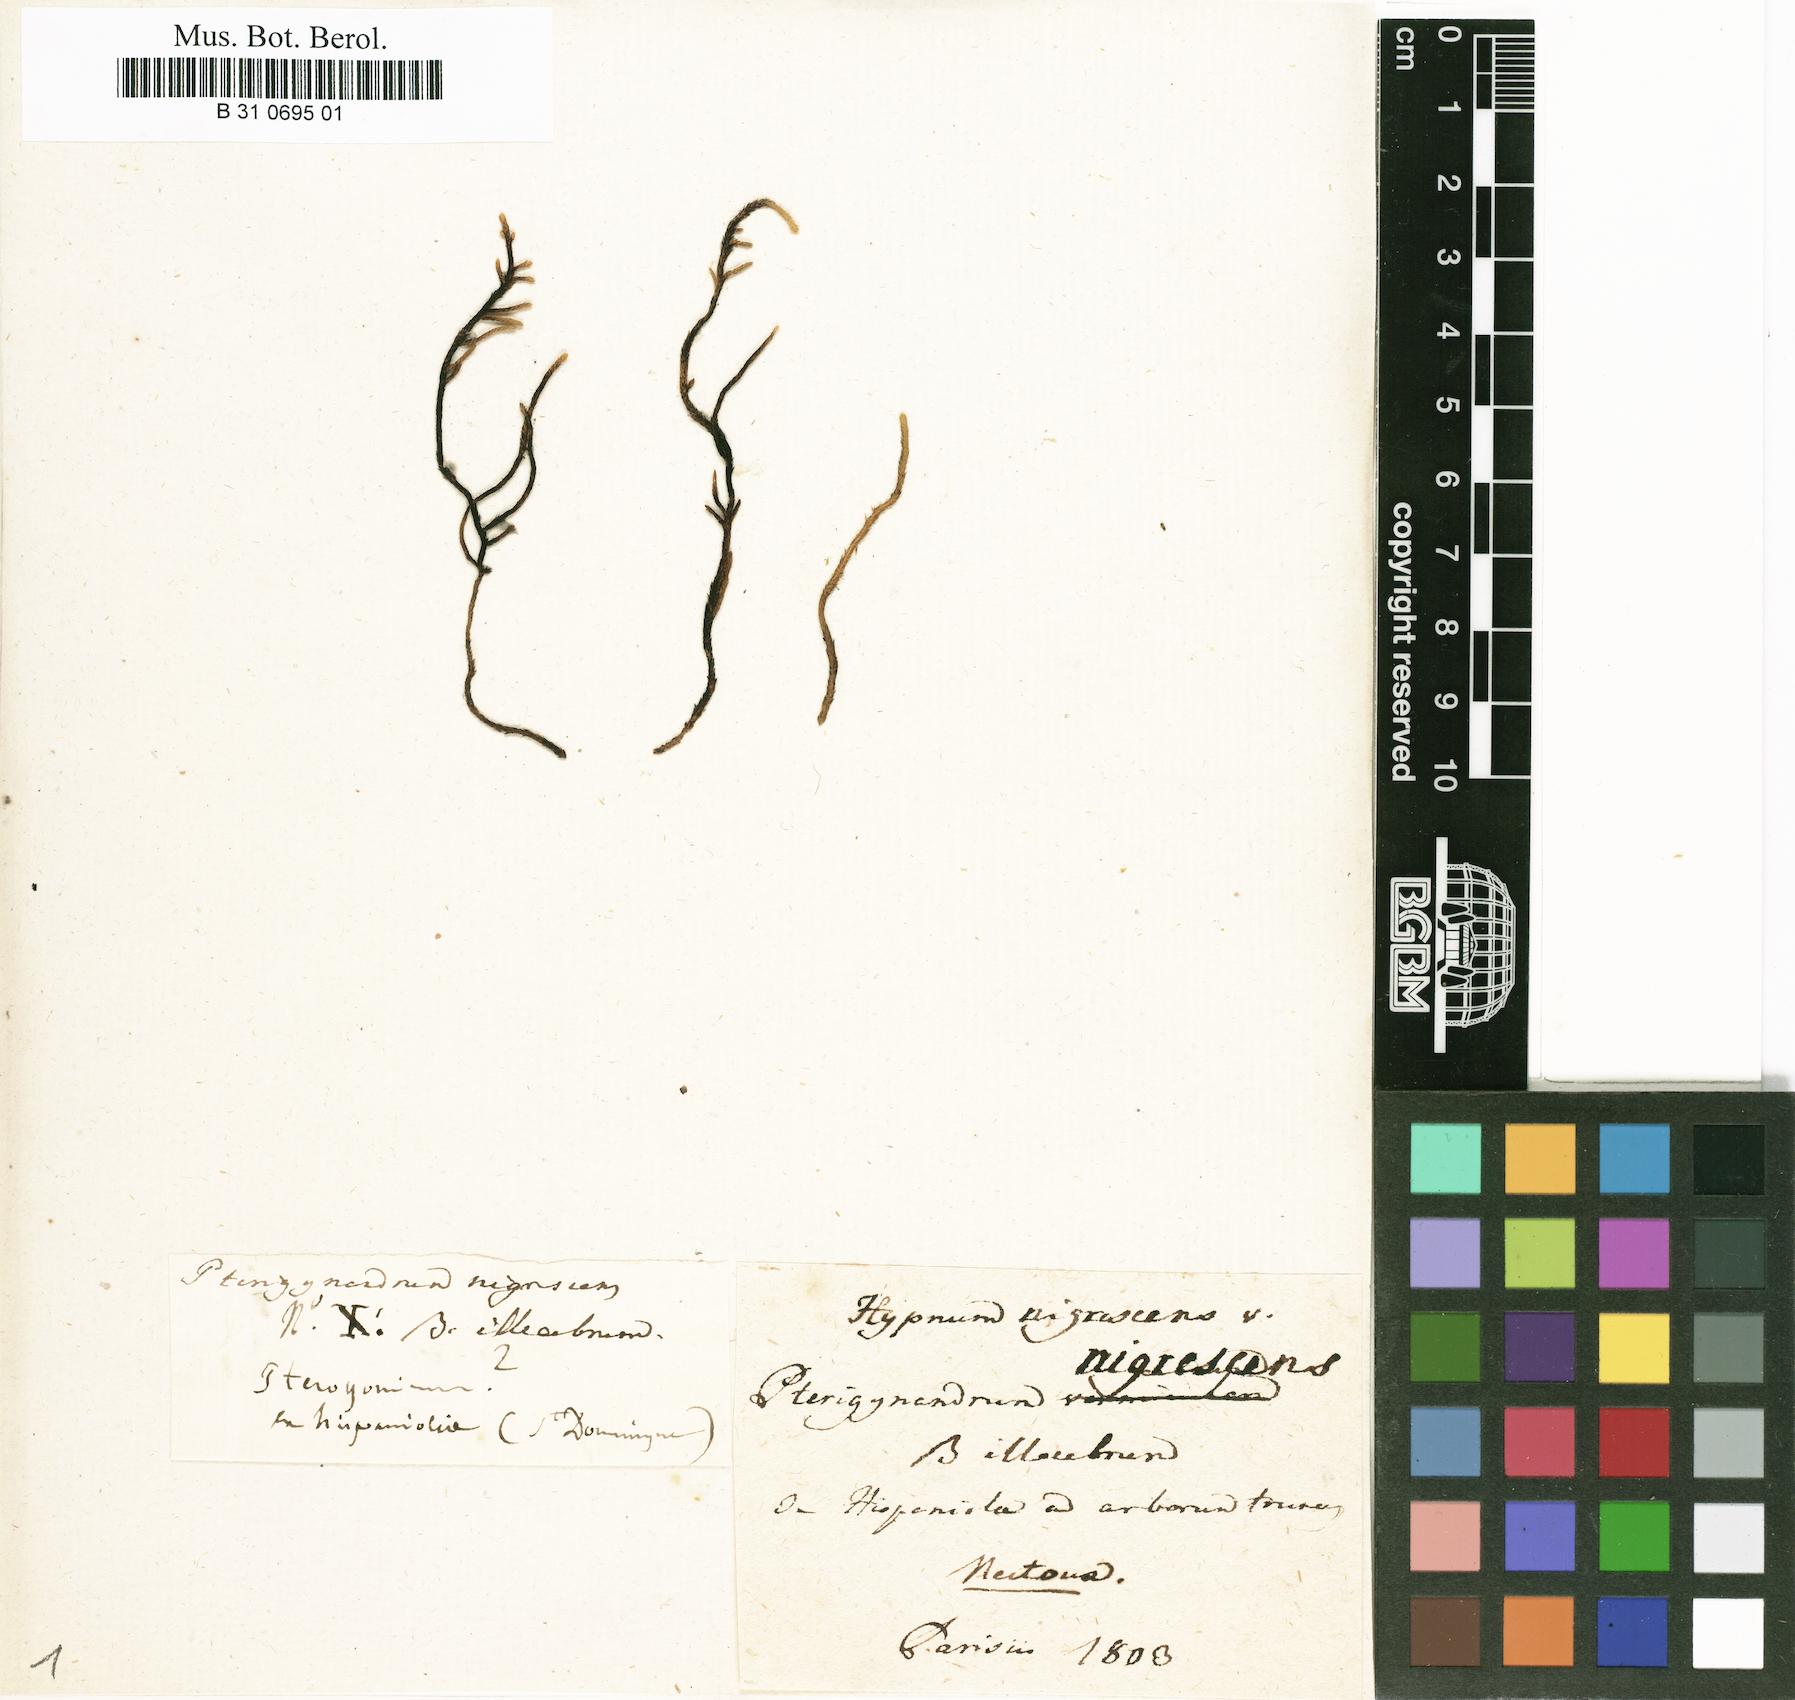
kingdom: Plantae
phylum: Bryophyta
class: Bryopsida
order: Hypnales
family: Meteoriaceae
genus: Meteorium
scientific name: Meteorium nigrescens
